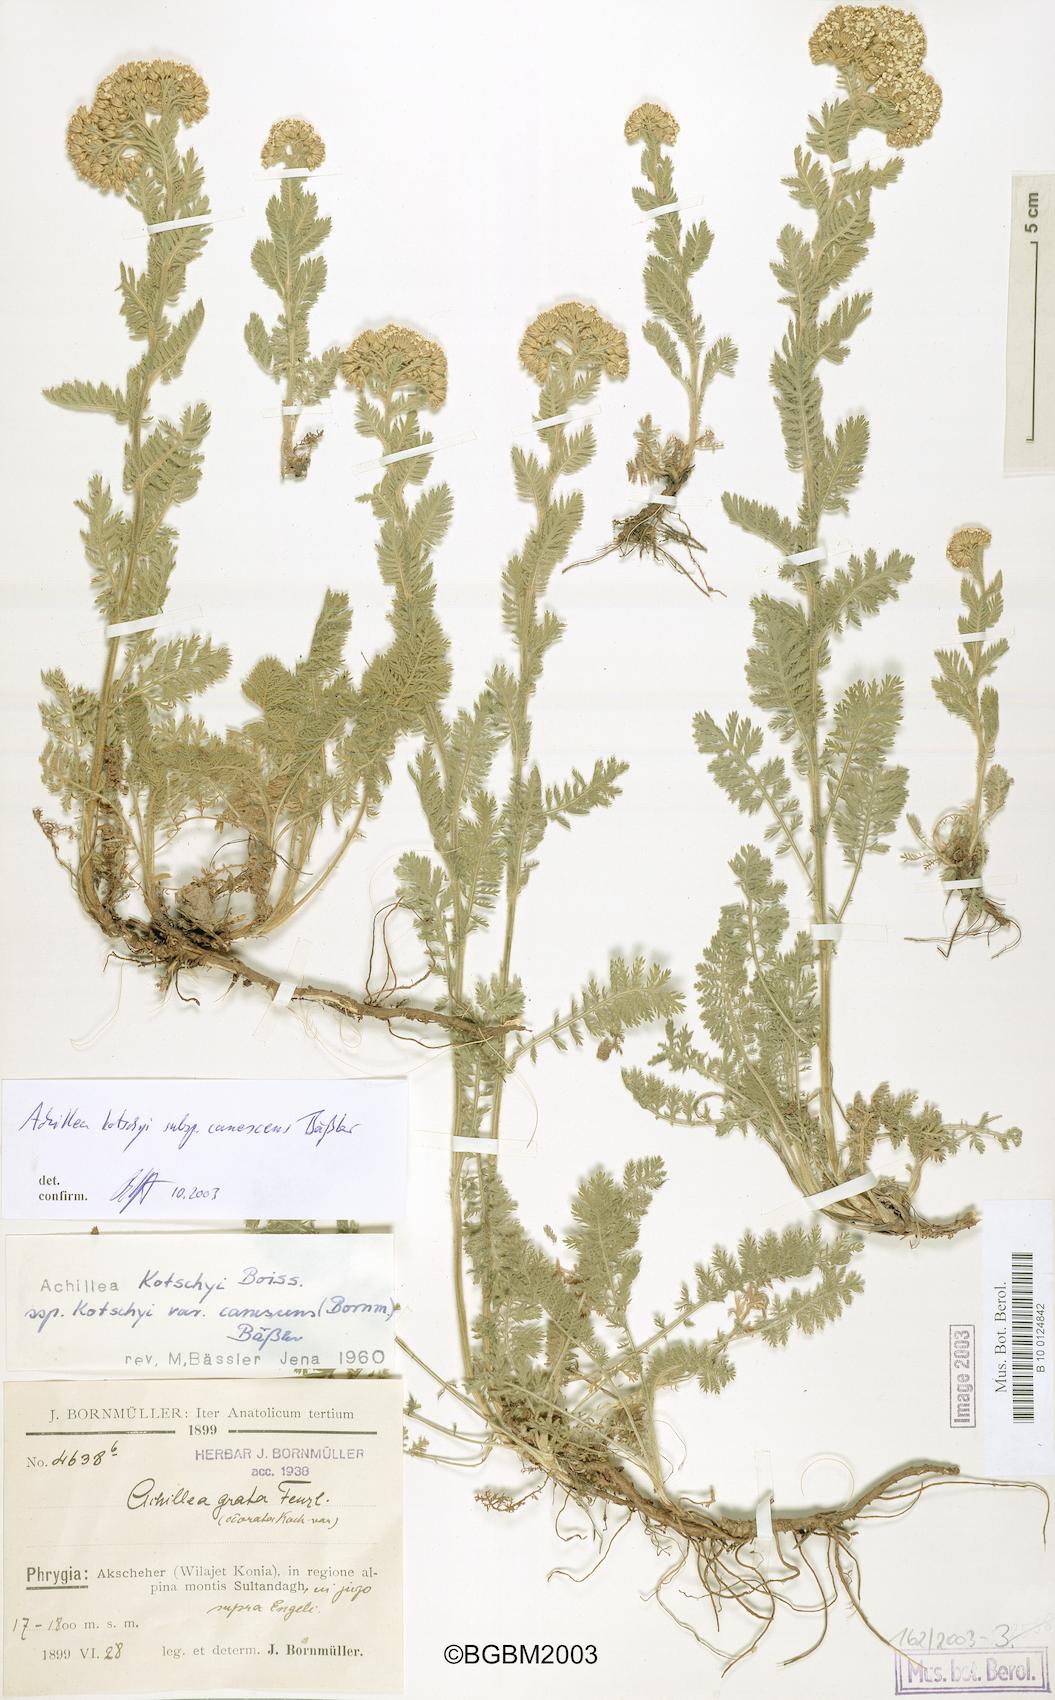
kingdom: Plantae
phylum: Tracheophyta
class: Magnoliopsida
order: Asterales
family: Asteraceae
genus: Achillea
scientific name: Achillea kotschyi
